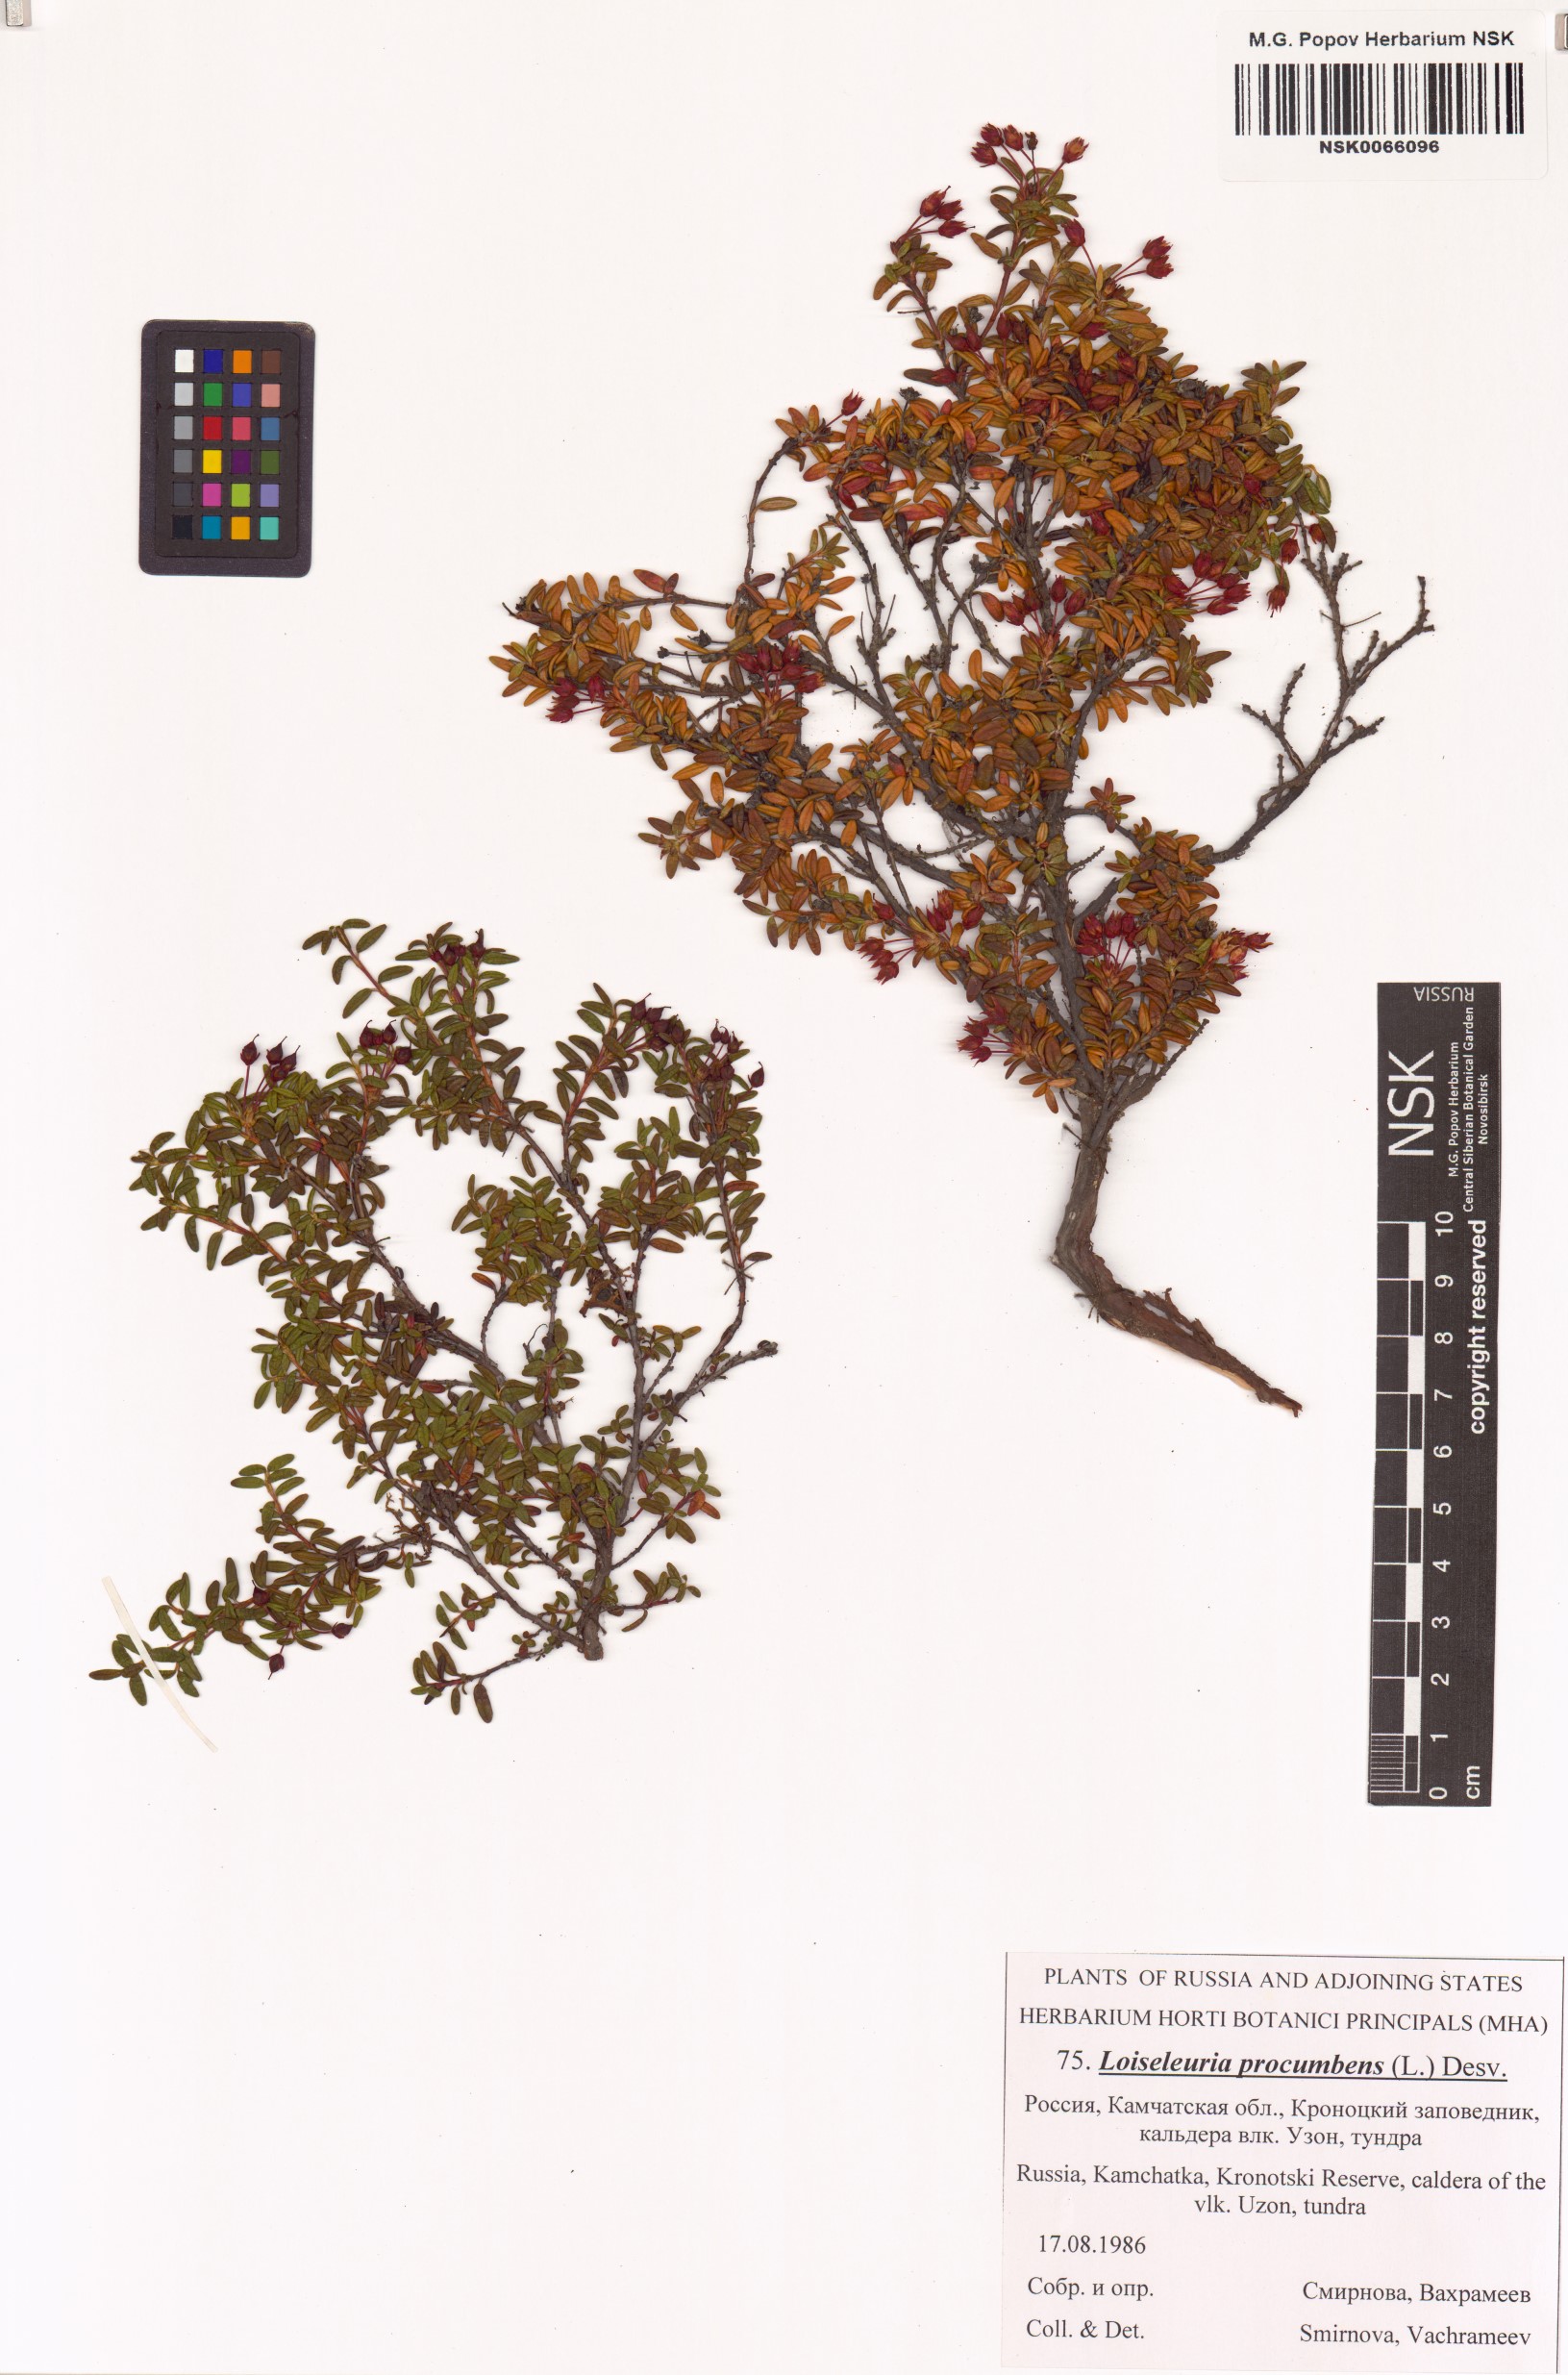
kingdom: Plantae
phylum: Tracheophyta
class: Magnoliopsida
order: Ericales
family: Ericaceae
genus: Kalmia
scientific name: Kalmia procumbens
